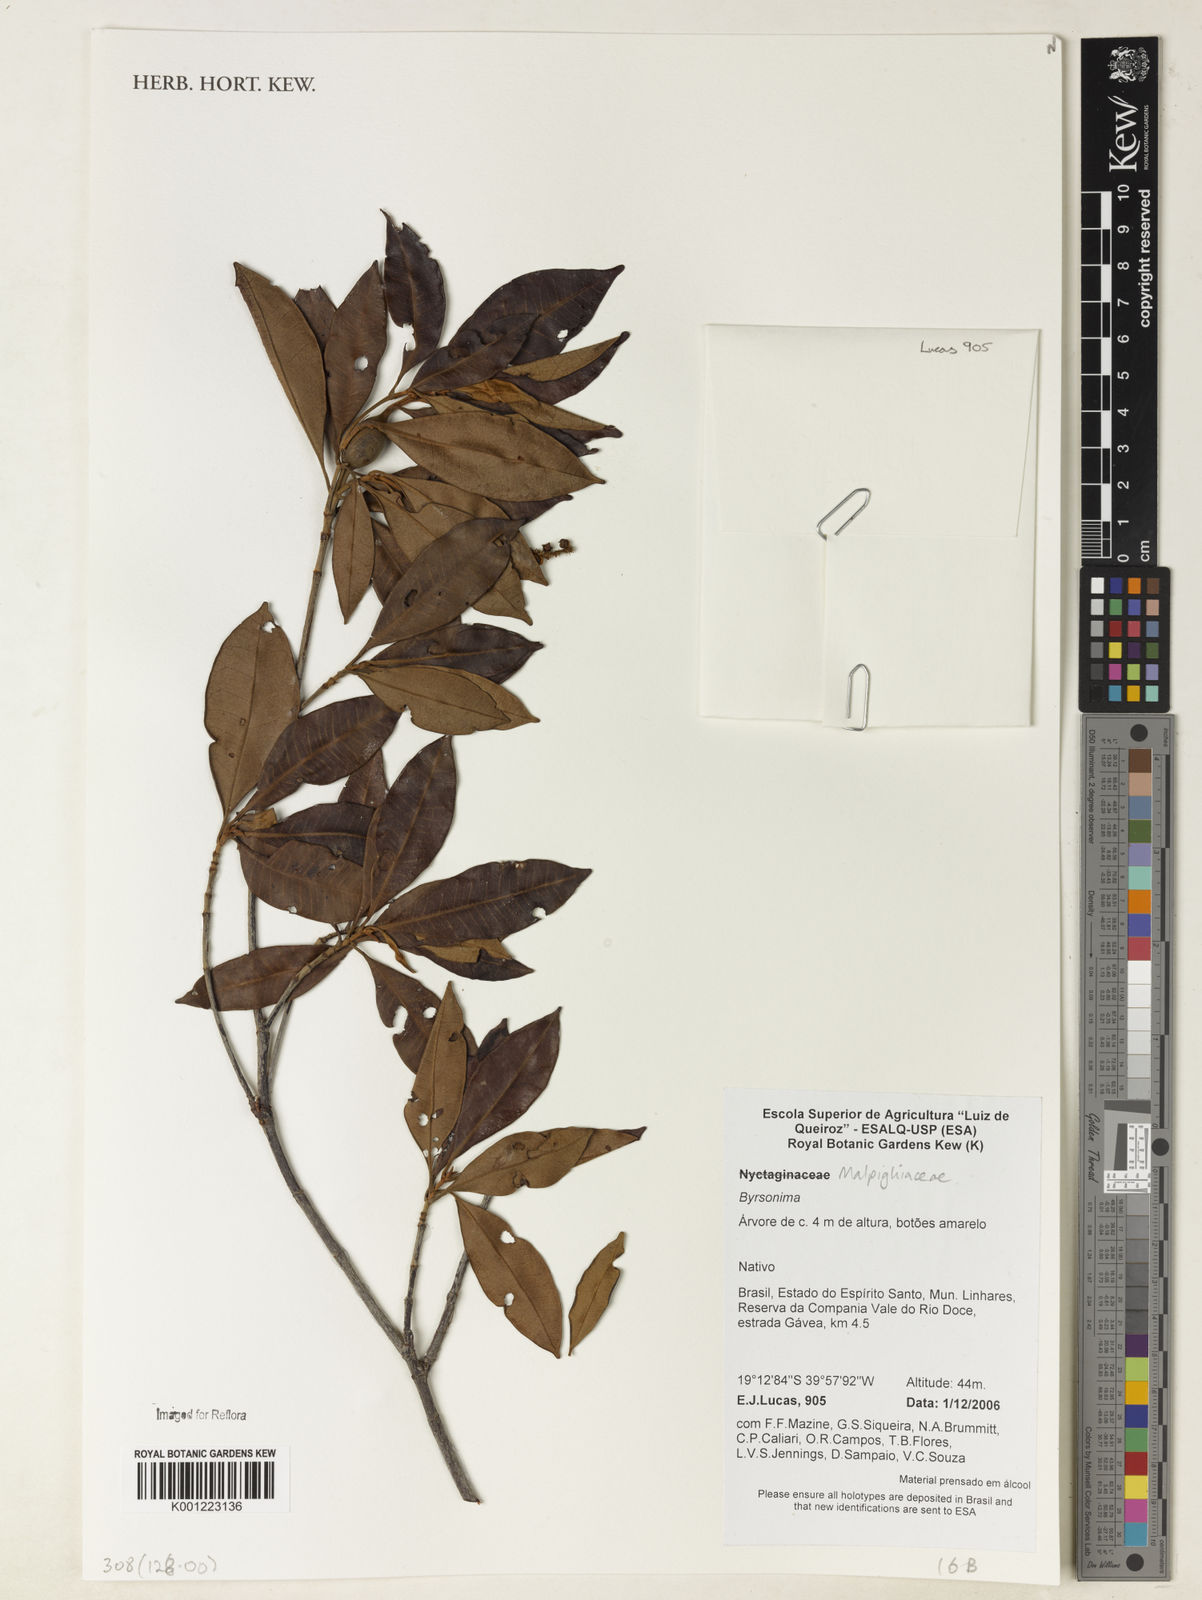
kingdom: Plantae
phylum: Tracheophyta
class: Magnoliopsida
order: Malpighiales
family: Malpighiaceae
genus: Byrsonima
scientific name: Byrsonima
